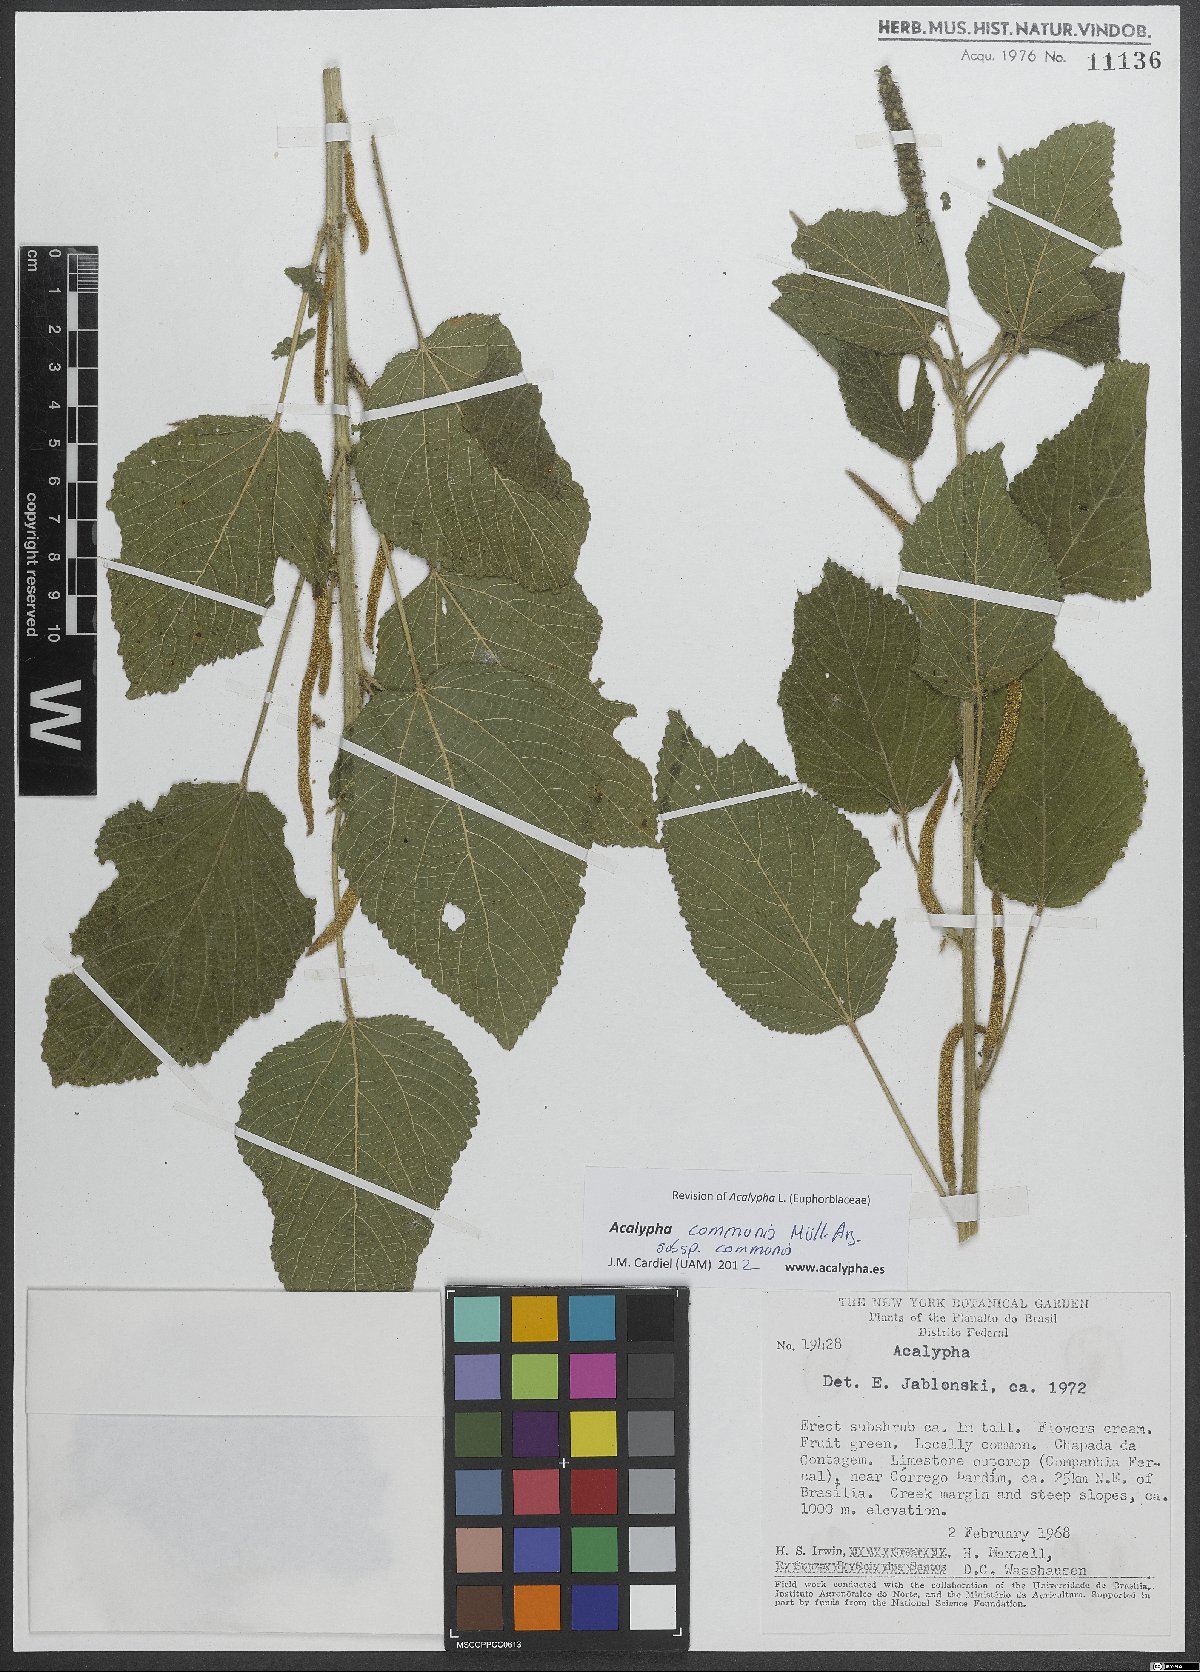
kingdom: Plantae
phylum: Tracheophyta
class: Magnoliopsida
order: Malpighiales
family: Euphorbiaceae
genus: Acalypha
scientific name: Acalypha communis
